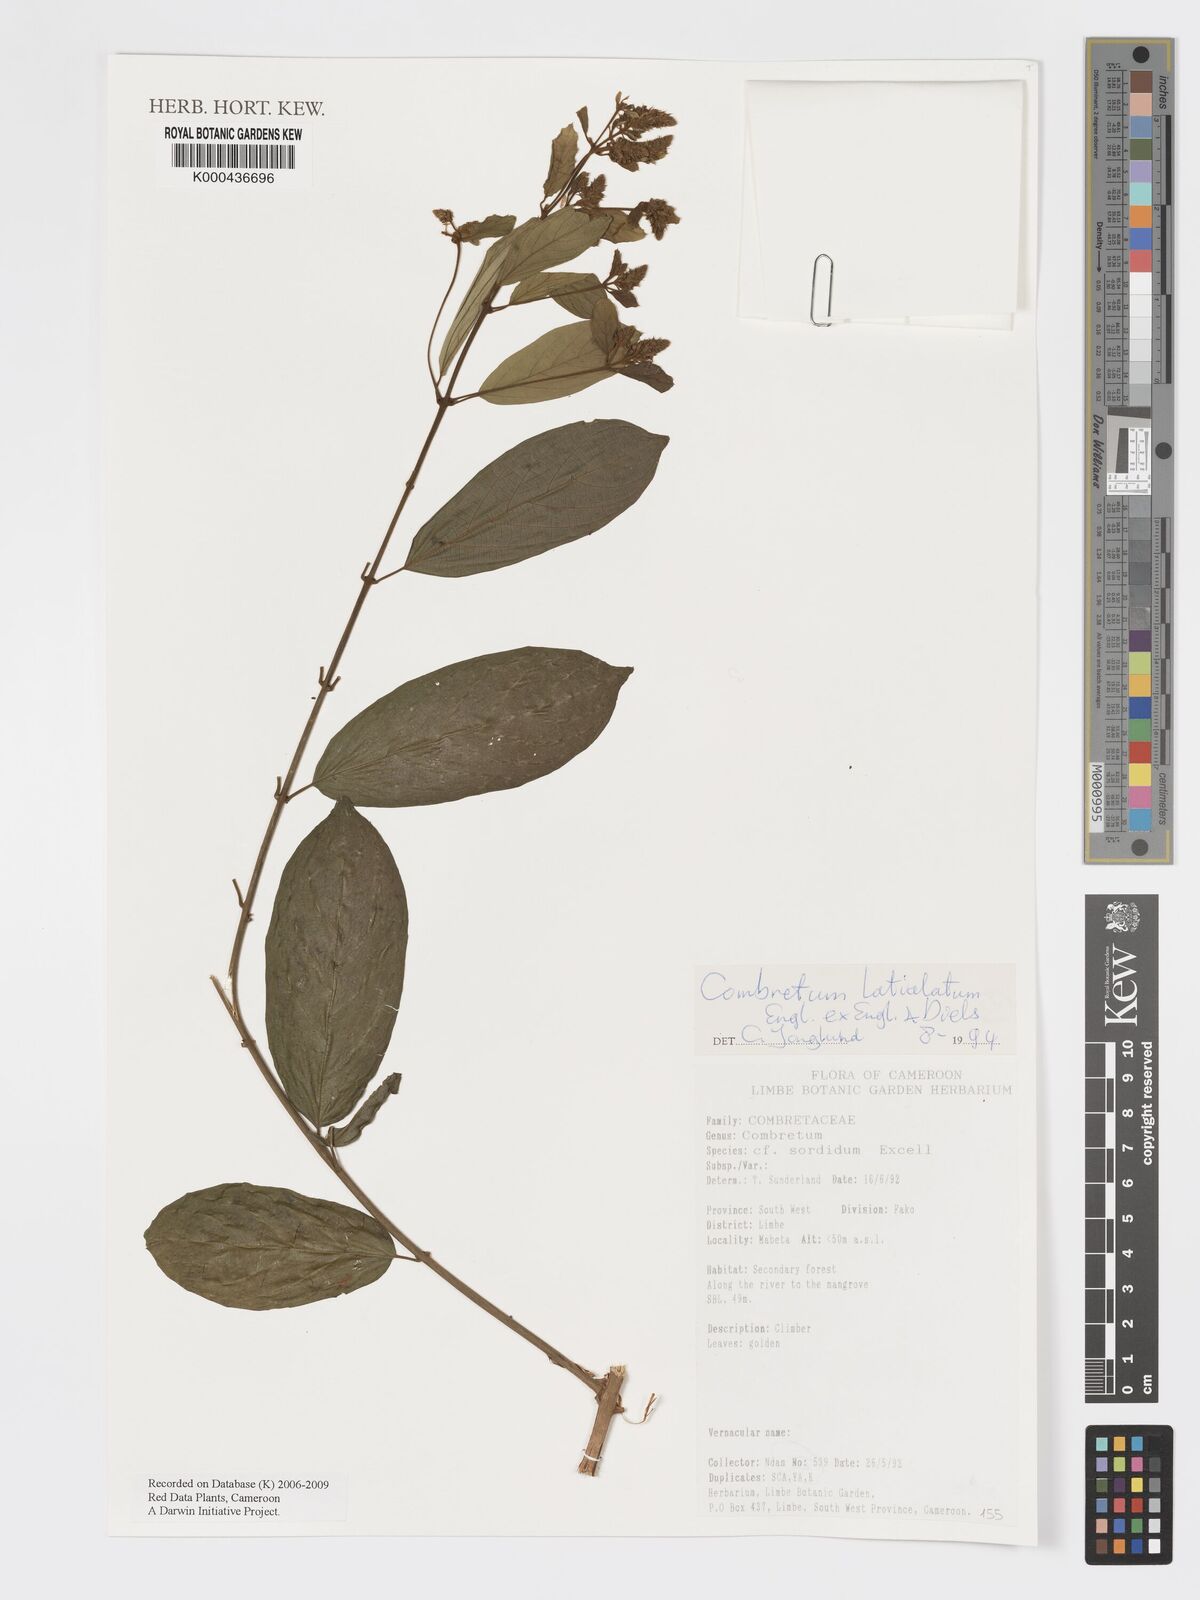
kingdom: Plantae
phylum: Tracheophyta
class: Magnoliopsida
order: Myrtales
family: Combretaceae
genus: Combretum
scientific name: Combretum latialatum
